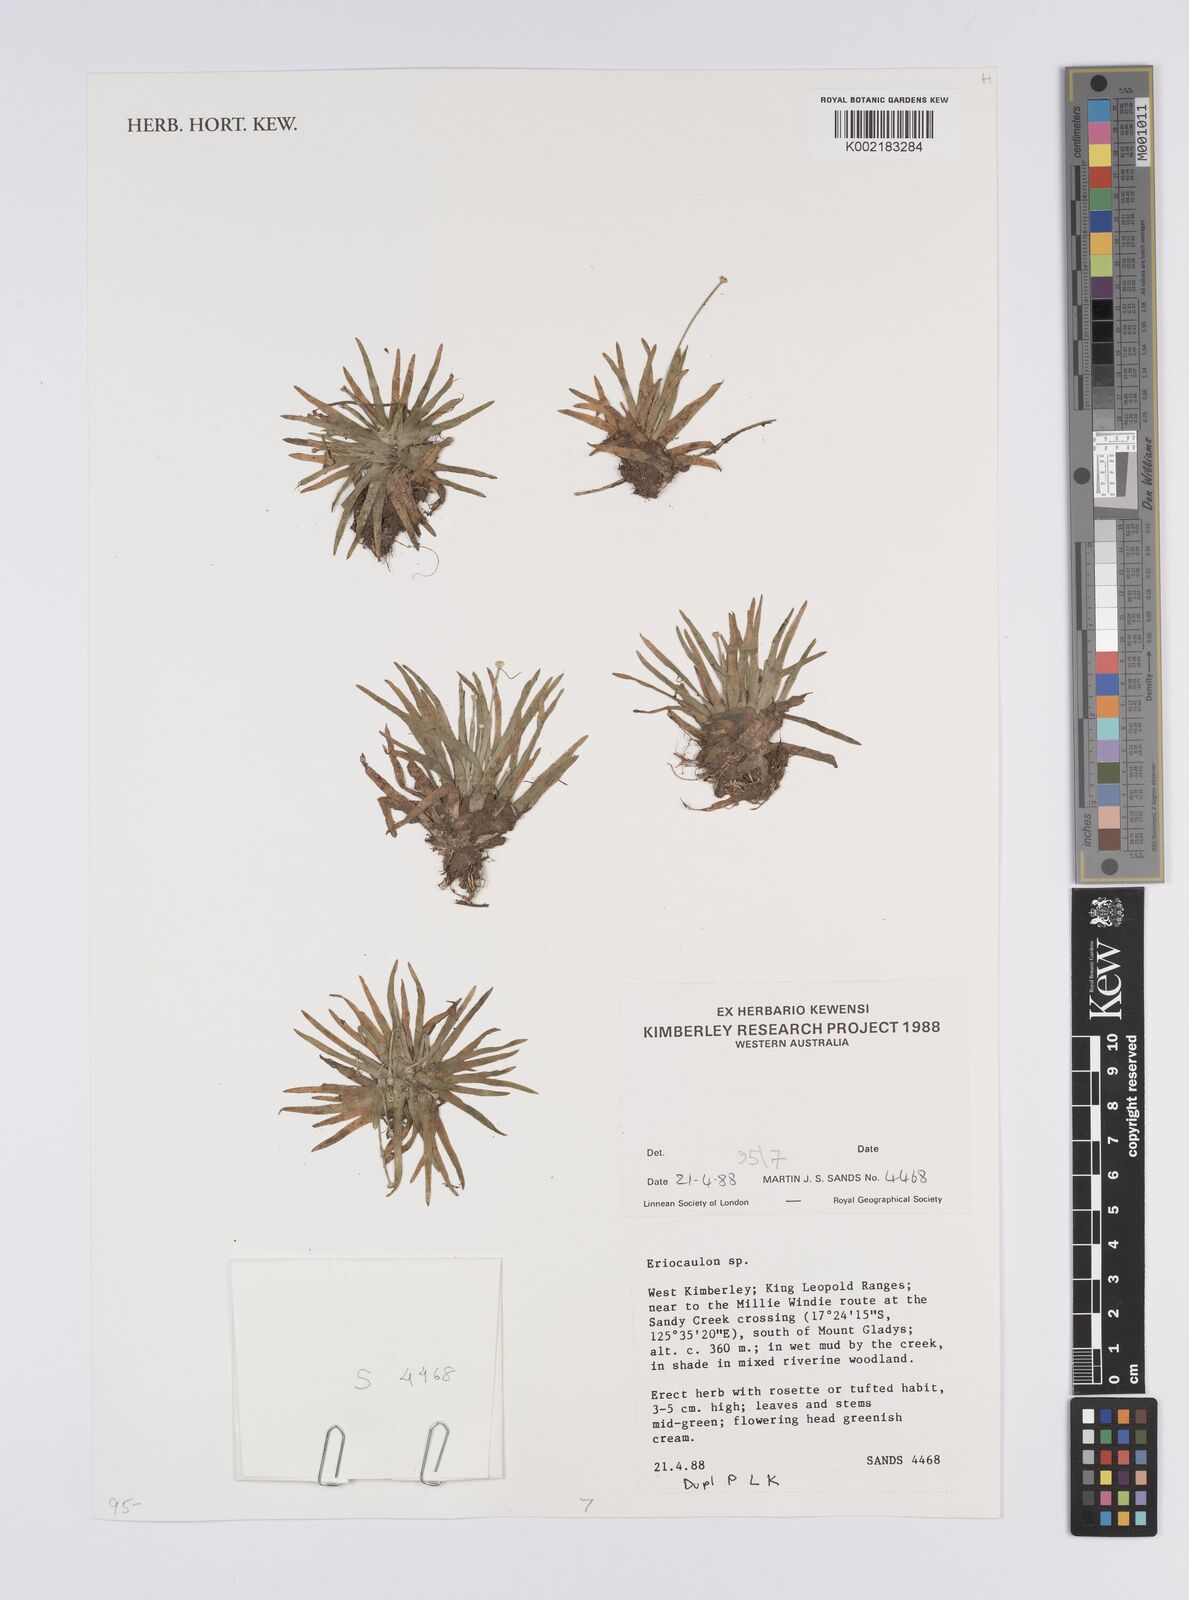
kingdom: Plantae
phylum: Tracheophyta
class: Liliopsida
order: Poales
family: Eriocaulaceae
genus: Eriocaulon
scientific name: Eriocaulon
